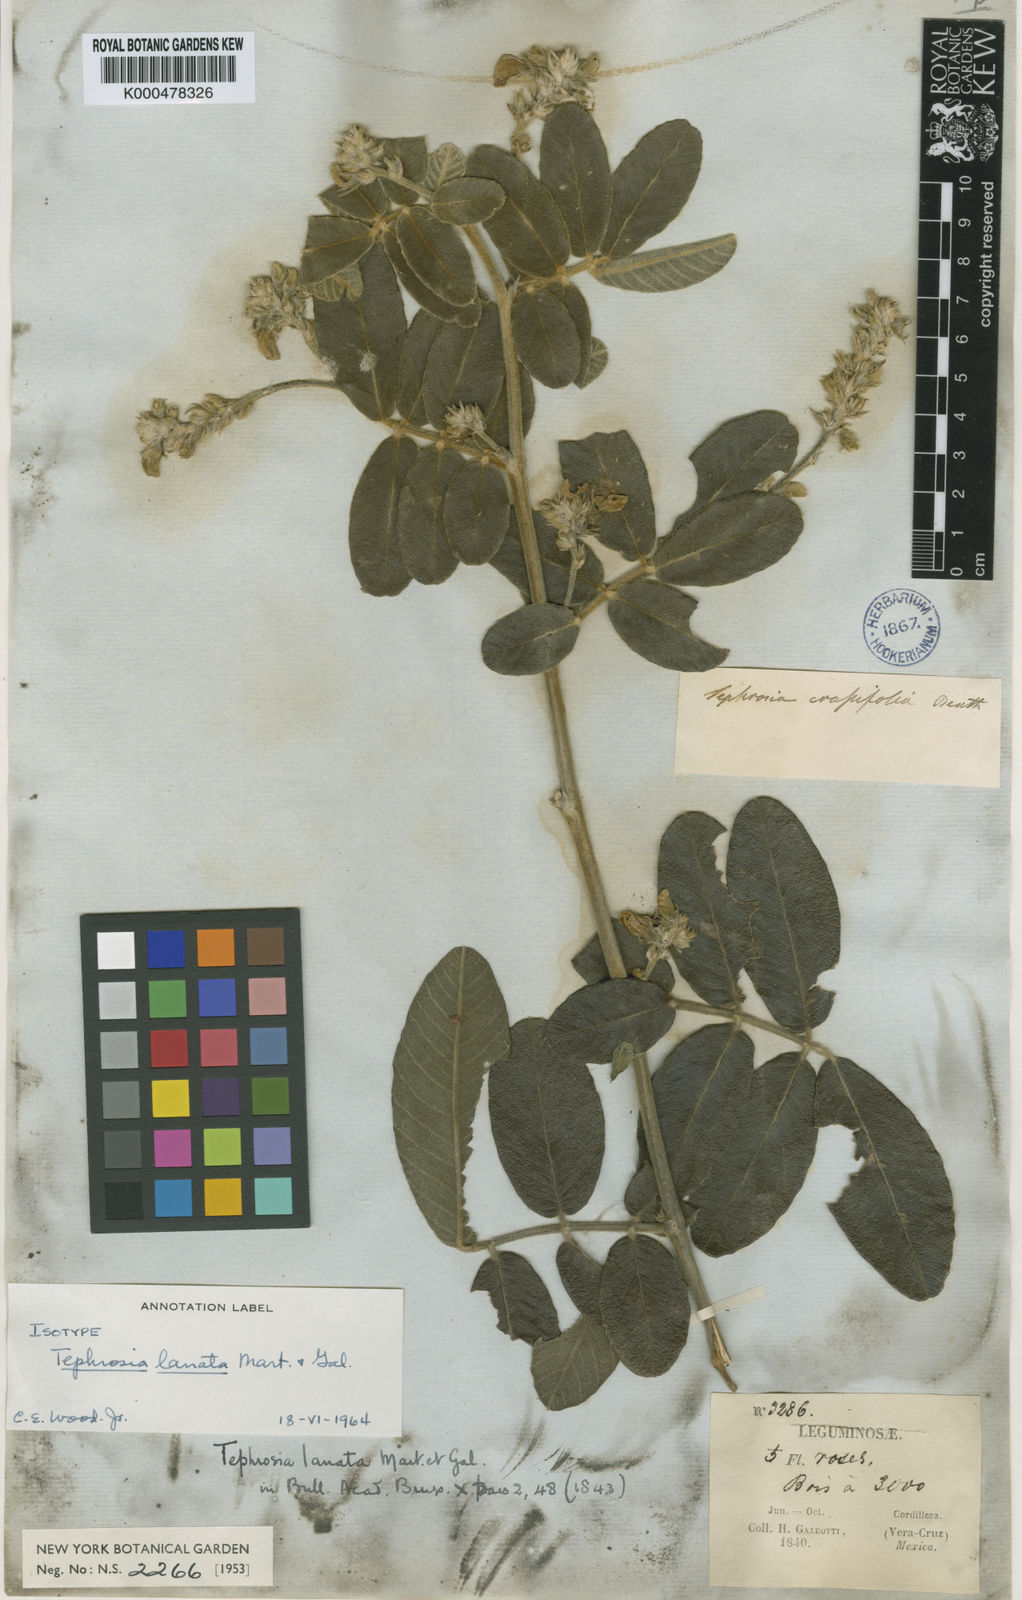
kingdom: Plantae
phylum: Tracheophyta
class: Magnoliopsida
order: Fabales
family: Fabaceae
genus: Tephrosia
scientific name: Tephrosia lanata
